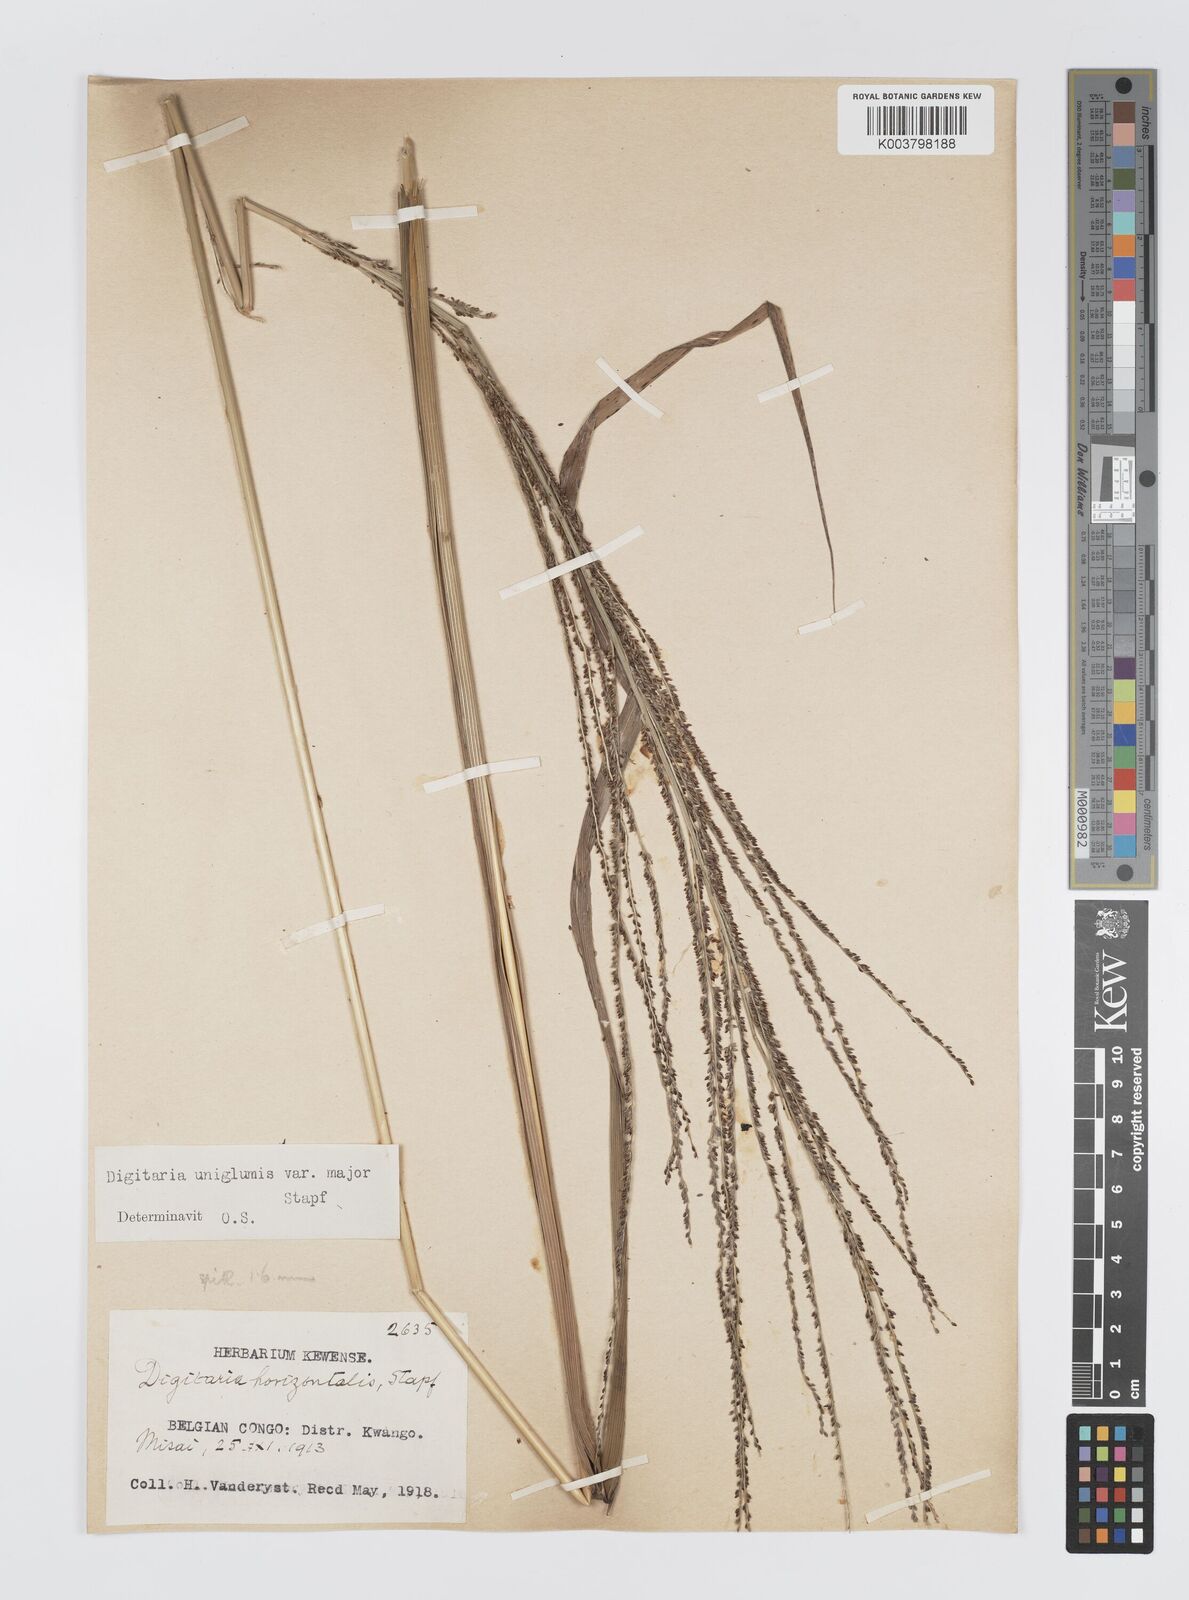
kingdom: Plantae
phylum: Tracheophyta
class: Liliopsida
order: Poales
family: Poaceae
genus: Digitaria
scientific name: Digitaria diagonalis
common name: Brown-seed finger grass
